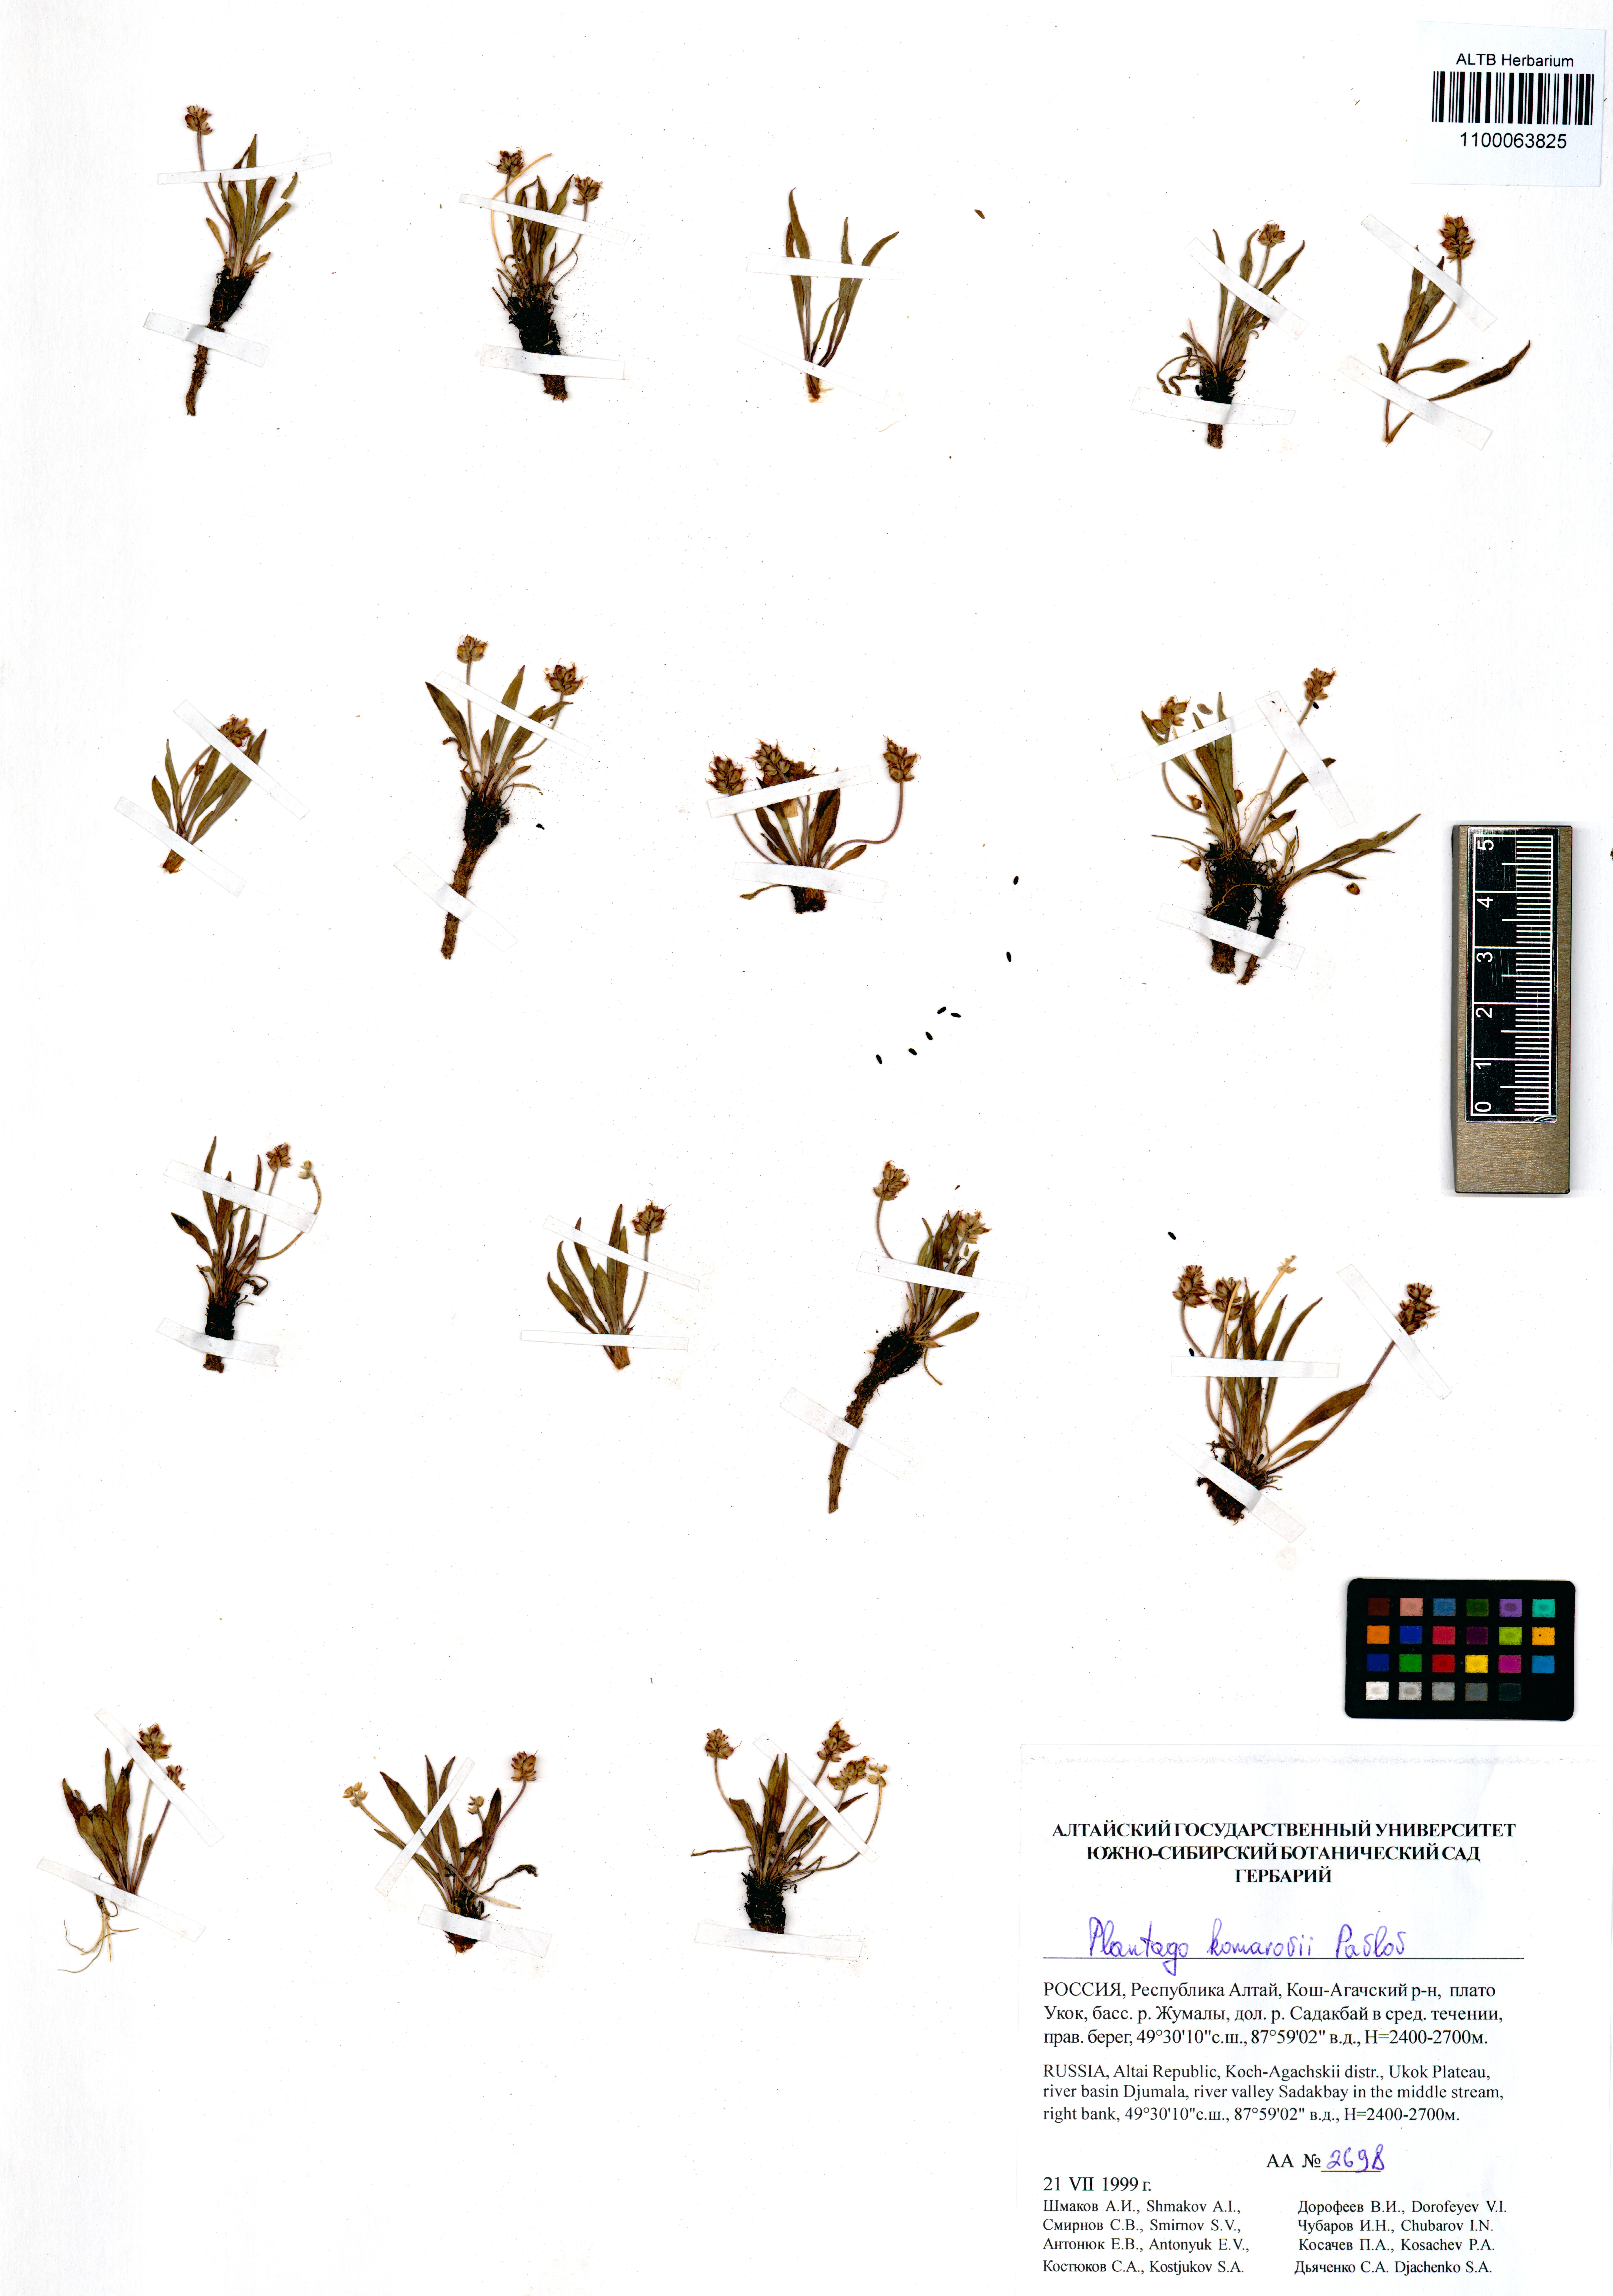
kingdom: Plantae
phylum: Tracheophyta
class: Magnoliopsida
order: Lamiales
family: Plantaginaceae
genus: Plantago
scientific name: Plantago komarovii
